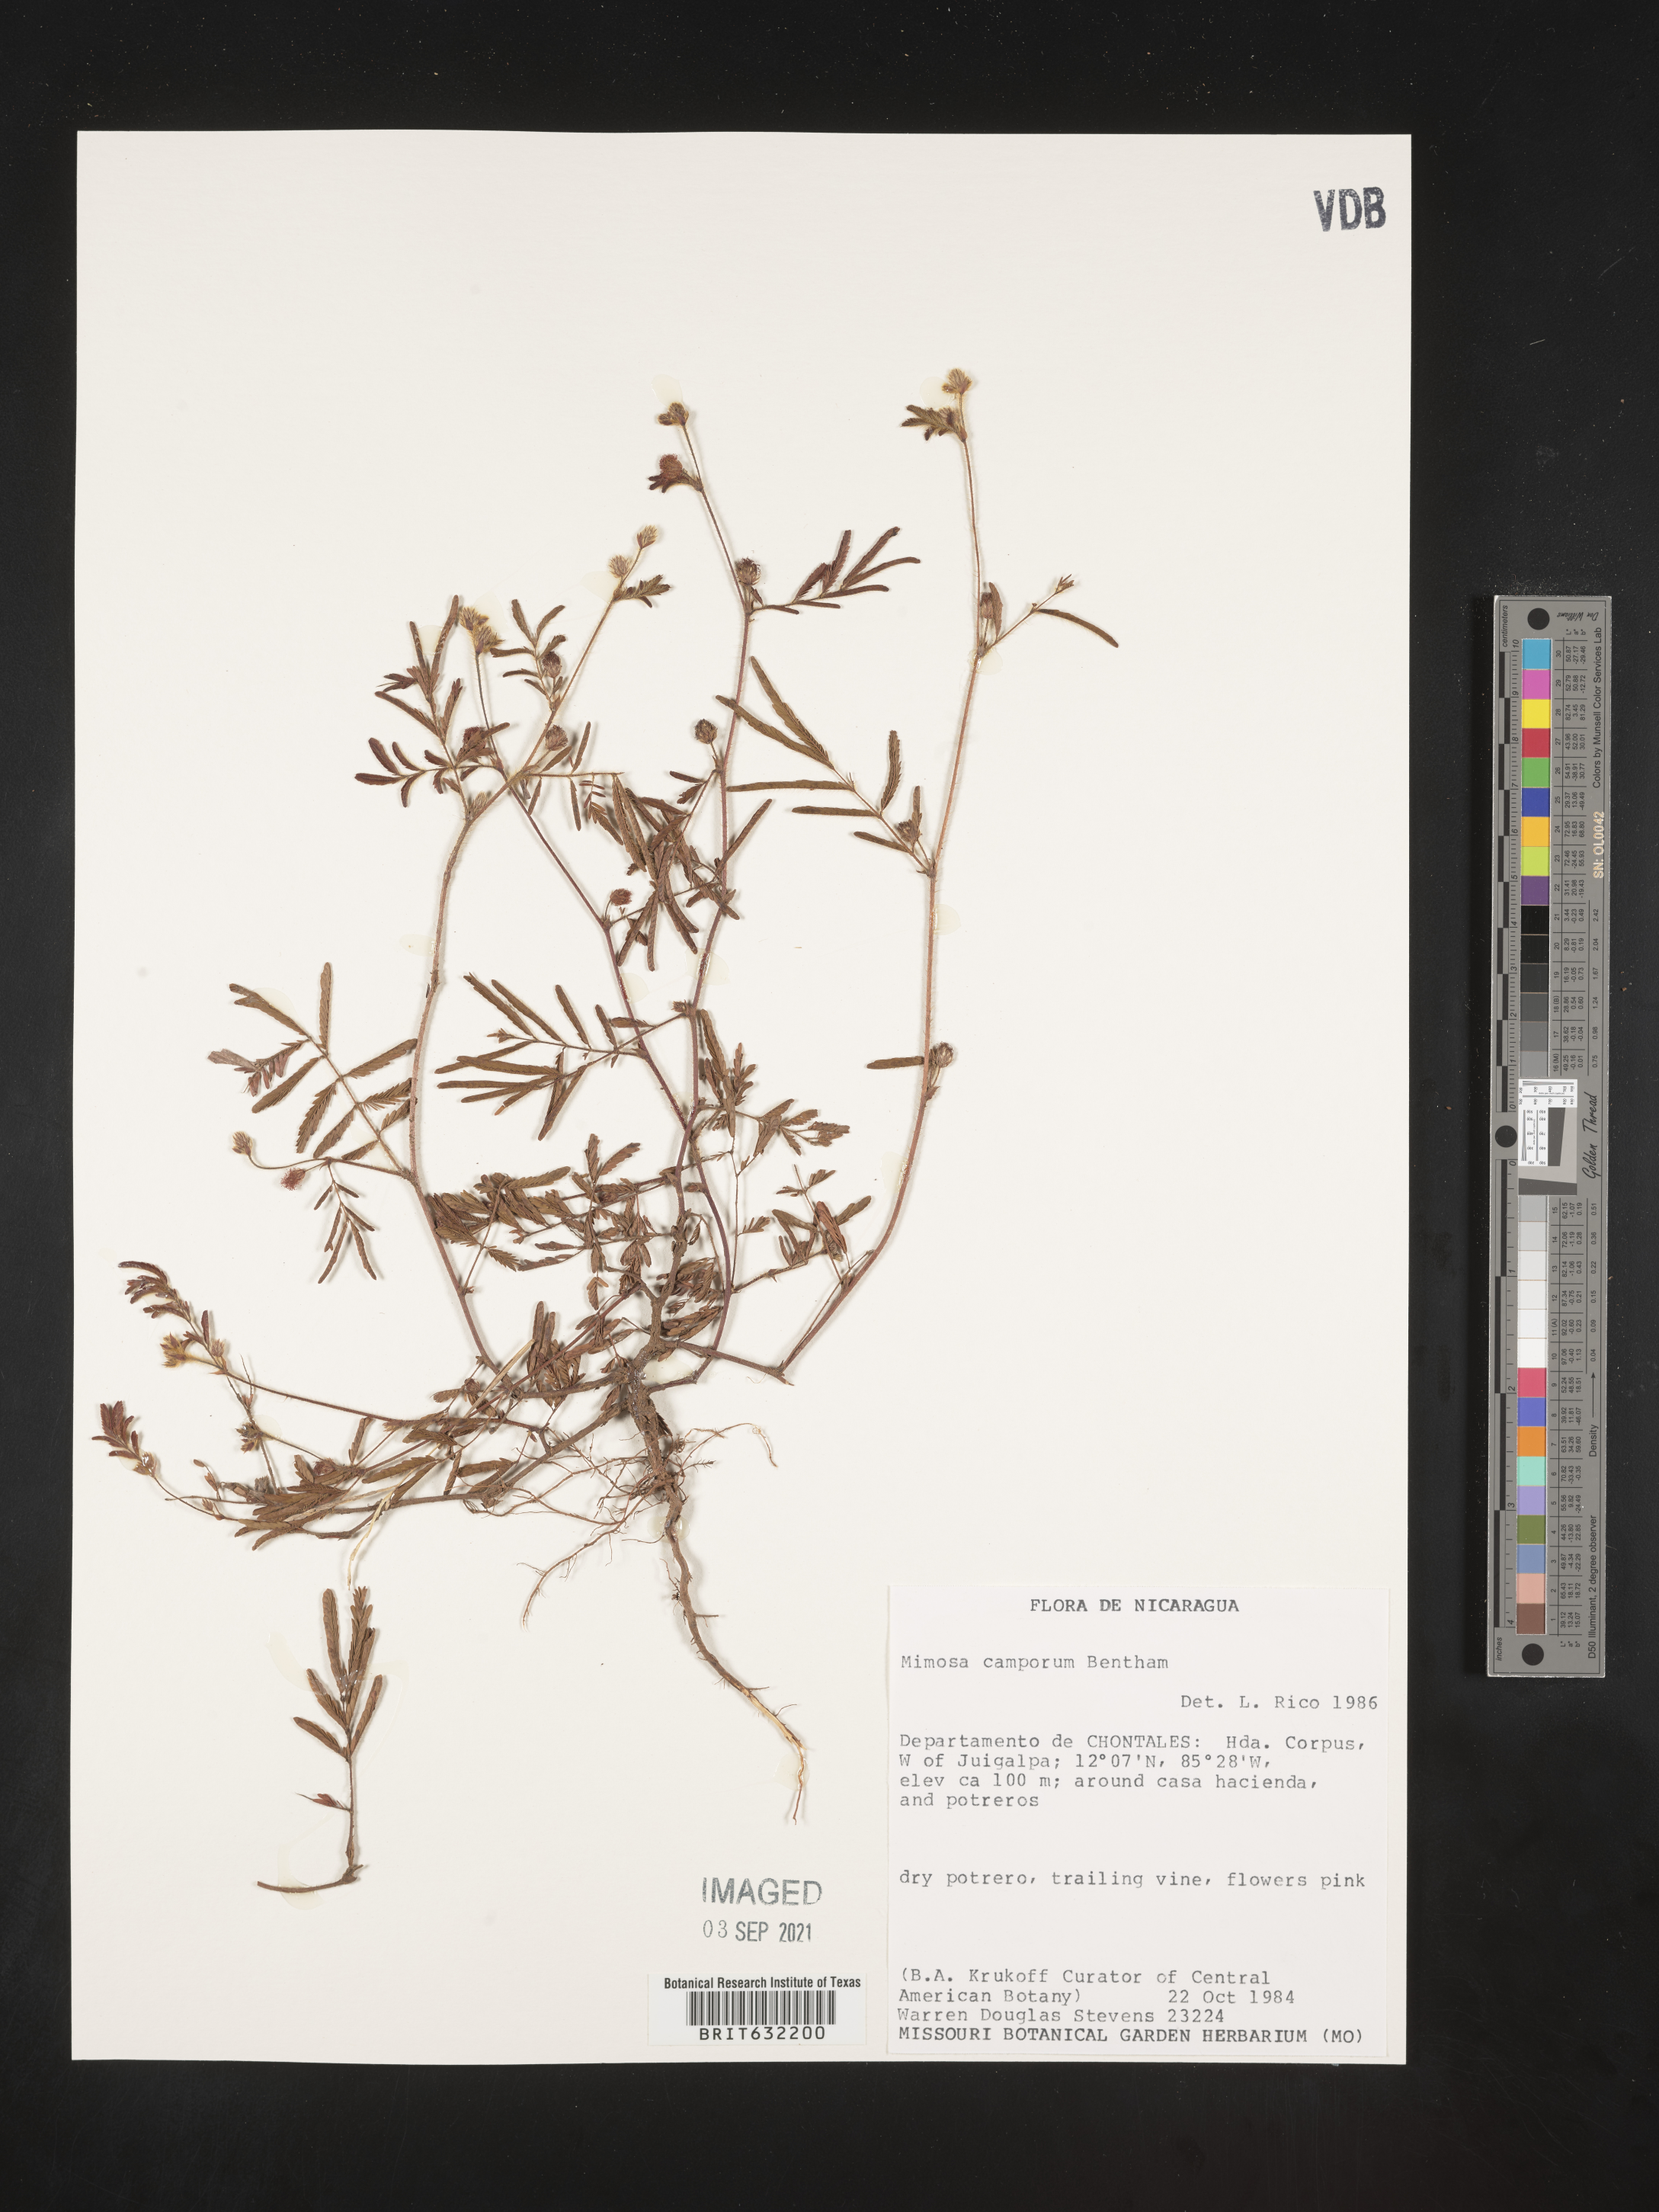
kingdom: Plantae
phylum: Tracheophyta
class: Magnoliopsida
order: Fabales
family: Fabaceae
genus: Mimosa
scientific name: Mimosa
